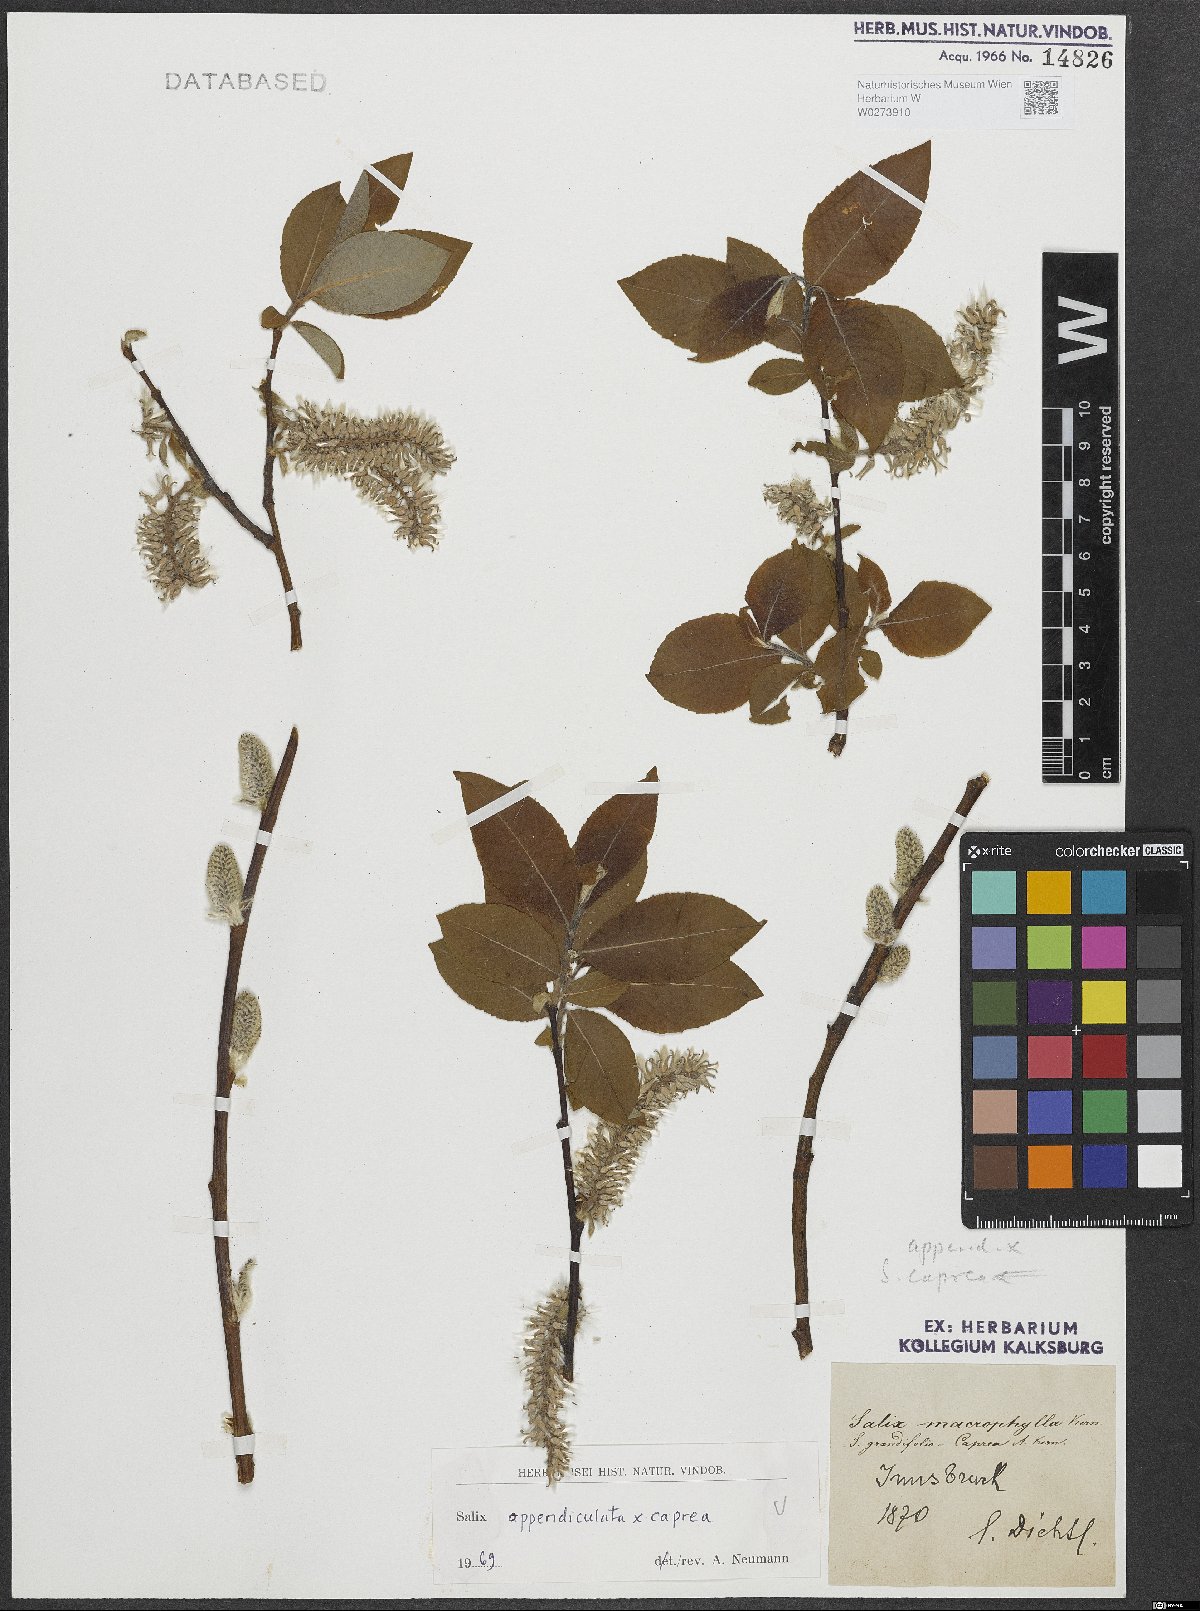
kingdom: Plantae
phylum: Tracheophyta
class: Magnoliopsida
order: Malpighiales
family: Salicaceae
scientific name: Salicaceae
